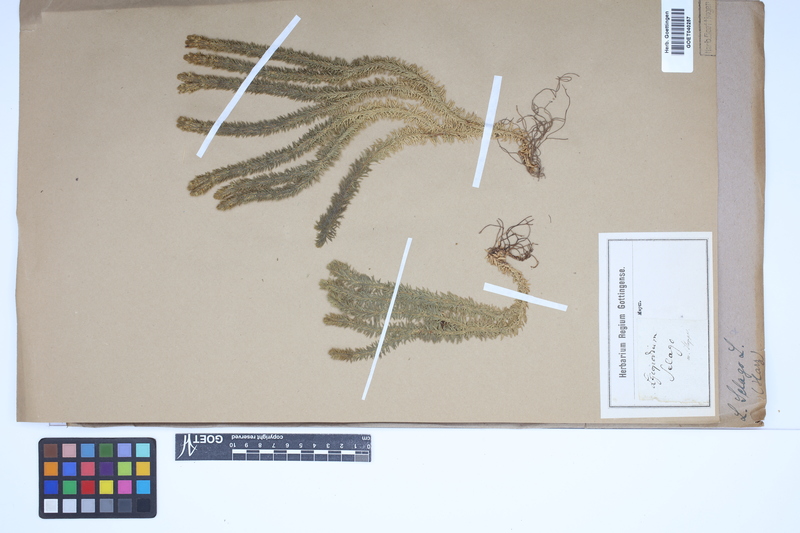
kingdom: Plantae
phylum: Tracheophyta
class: Lycopodiopsida
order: Lycopodiales
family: Lycopodiaceae
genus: Huperzia
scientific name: Huperzia selago
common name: Northern firmoss
